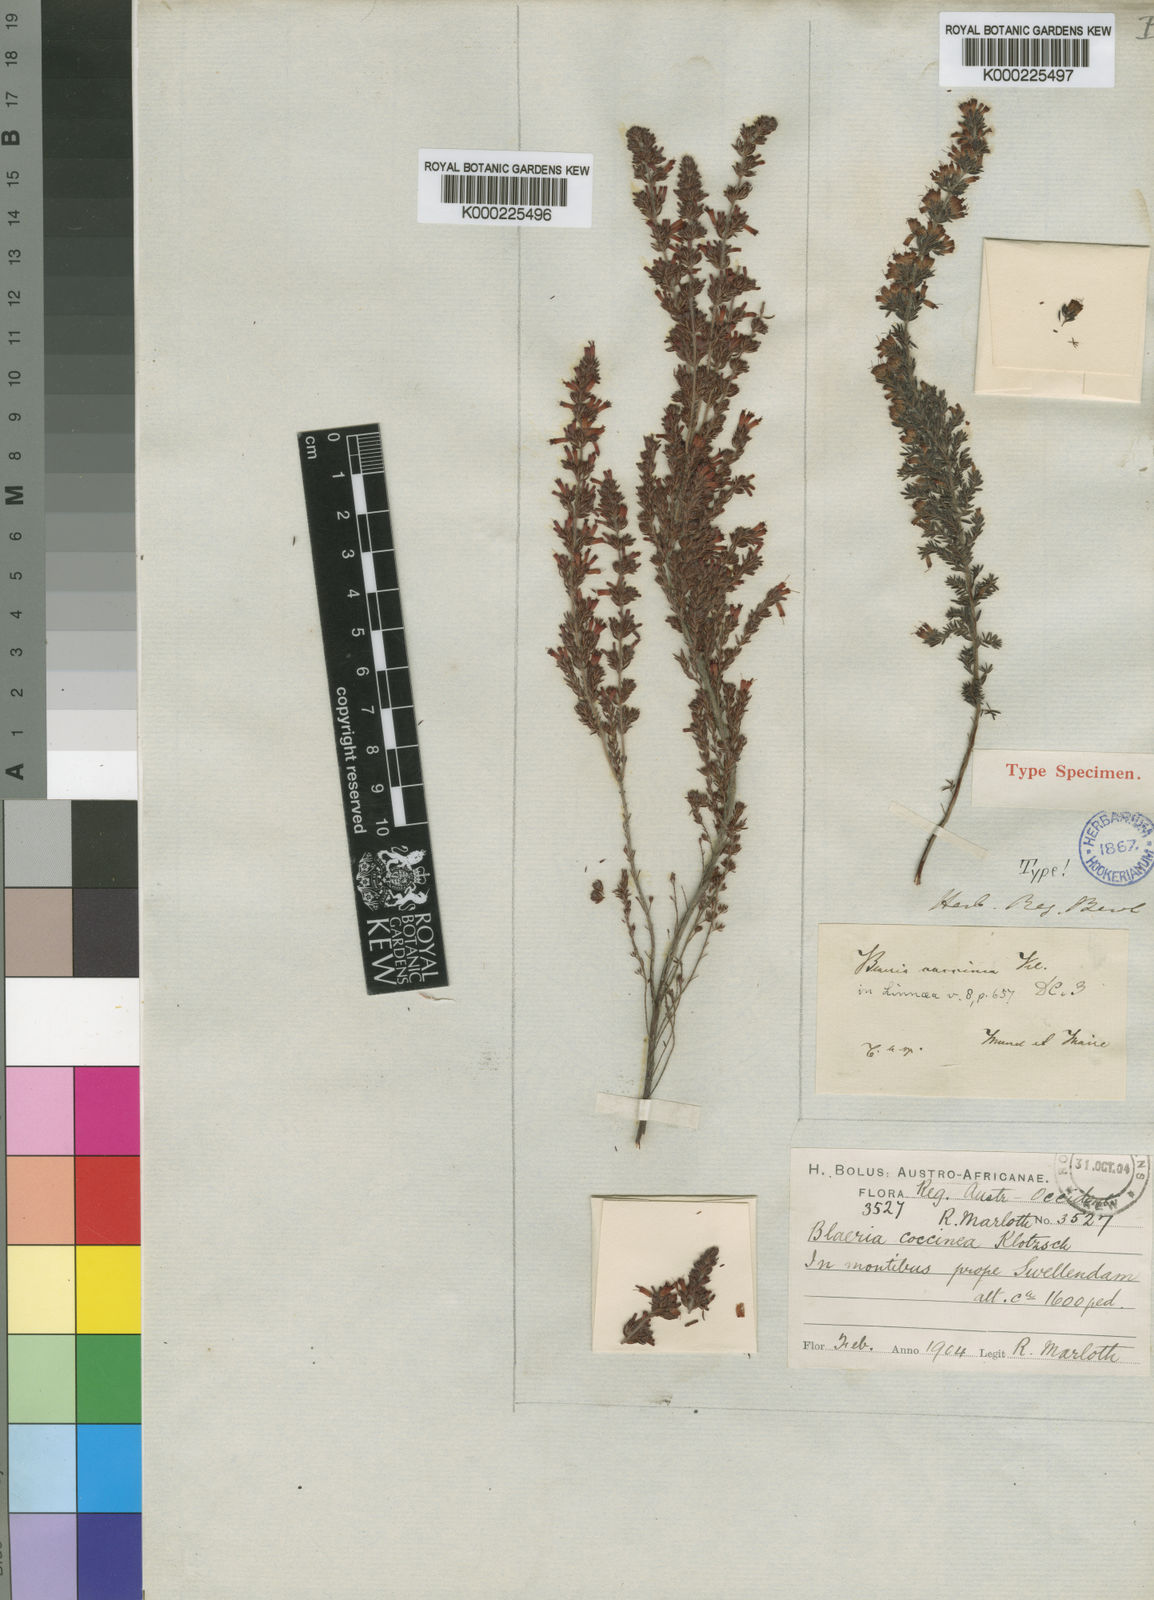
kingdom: Plantae
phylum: Tracheophyta
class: Magnoliopsida
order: Ericales
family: Ericaceae
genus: Erica
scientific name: Erica longimontana
